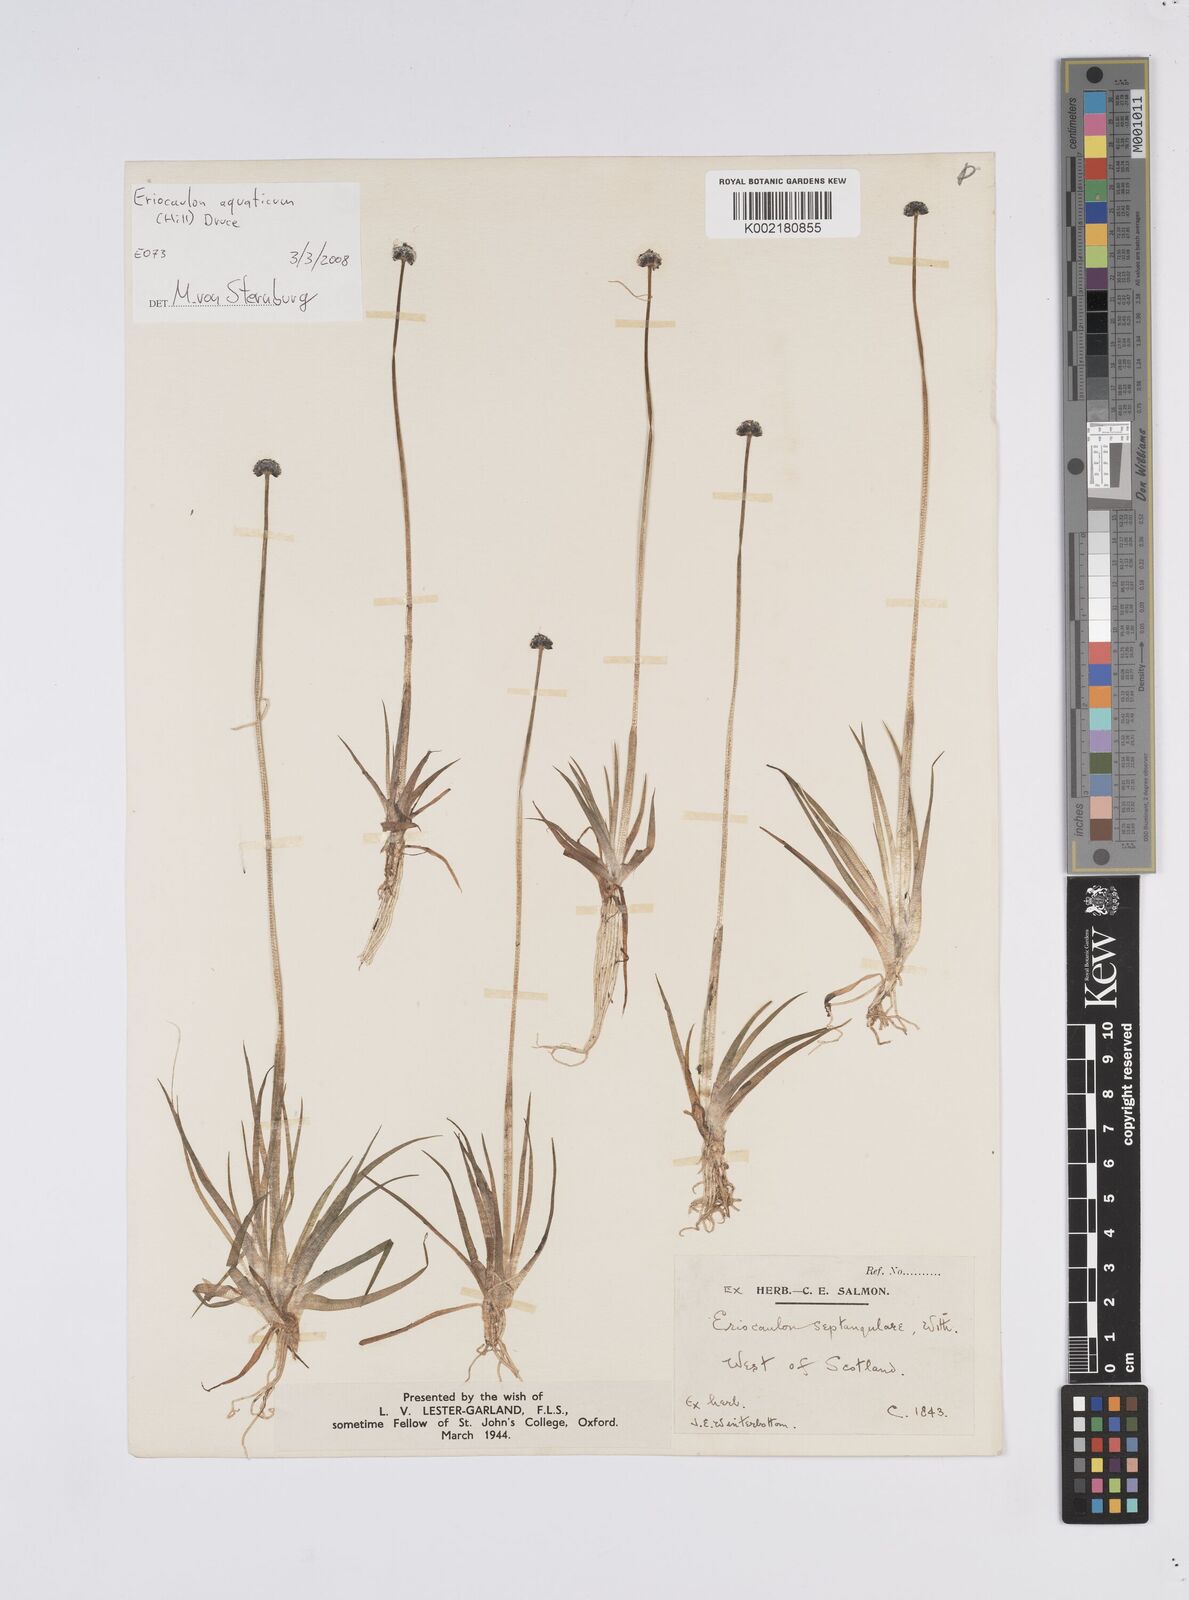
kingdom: Plantae
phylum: Tracheophyta
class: Liliopsida
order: Poales
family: Eriocaulaceae
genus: Eriocaulon
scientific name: Eriocaulon aquaticum
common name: Pipewort
